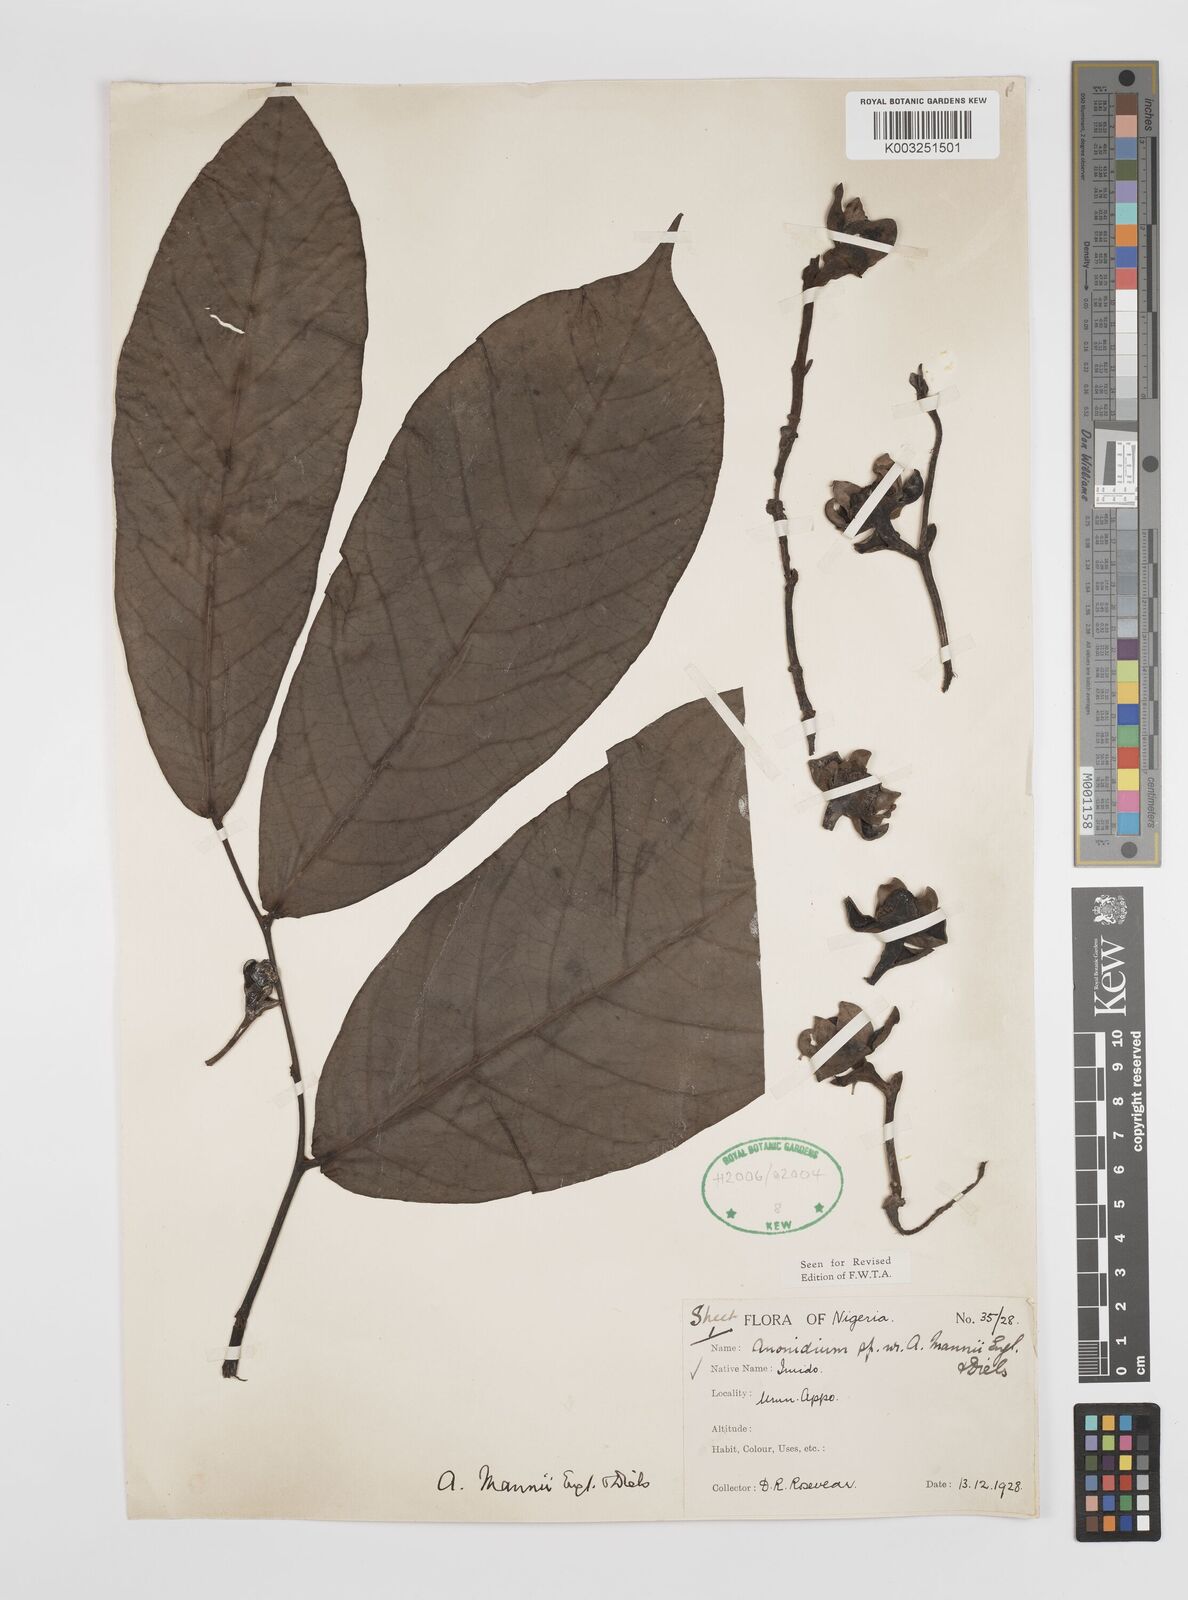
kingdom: Plantae
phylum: Tracheophyta
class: Magnoliopsida
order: Magnoliales
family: Annonaceae
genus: Anonidium
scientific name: Anonidium mannii
